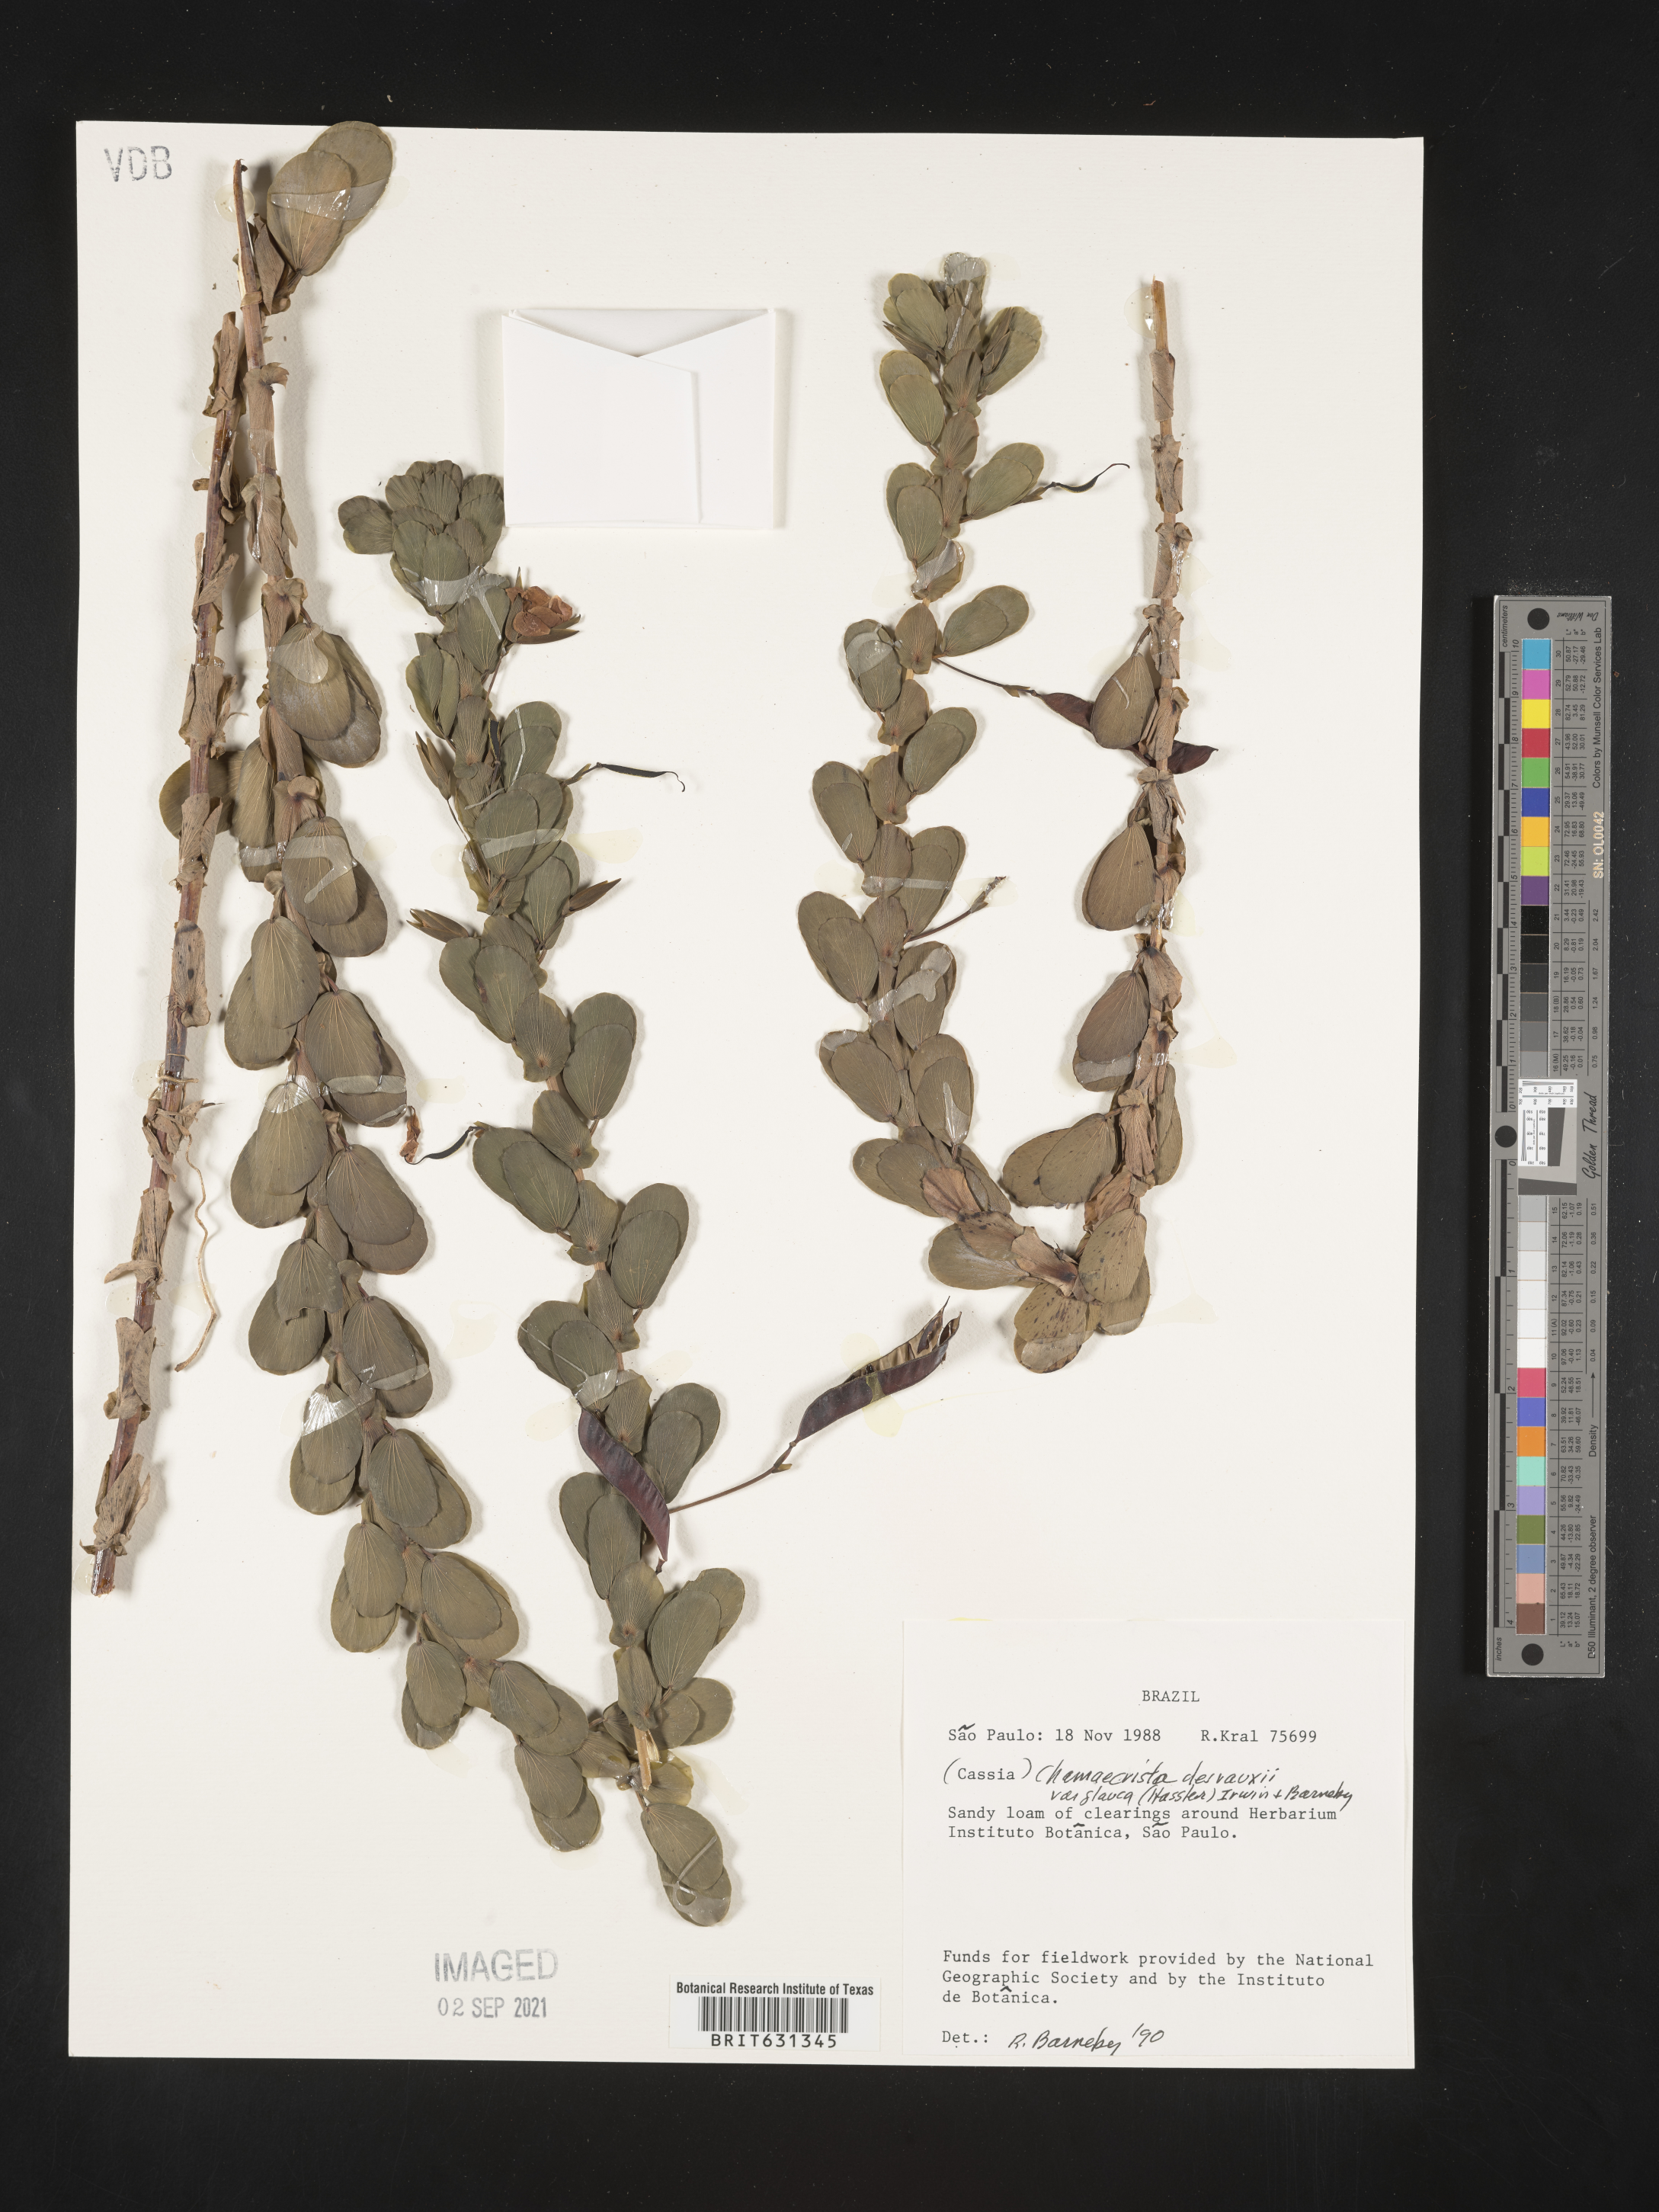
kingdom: Plantae
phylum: Tracheophyta
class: Magnoliopsida
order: Fabales
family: Fabaceae
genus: Chamaecrista
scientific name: Chamaecrista desvauxii
